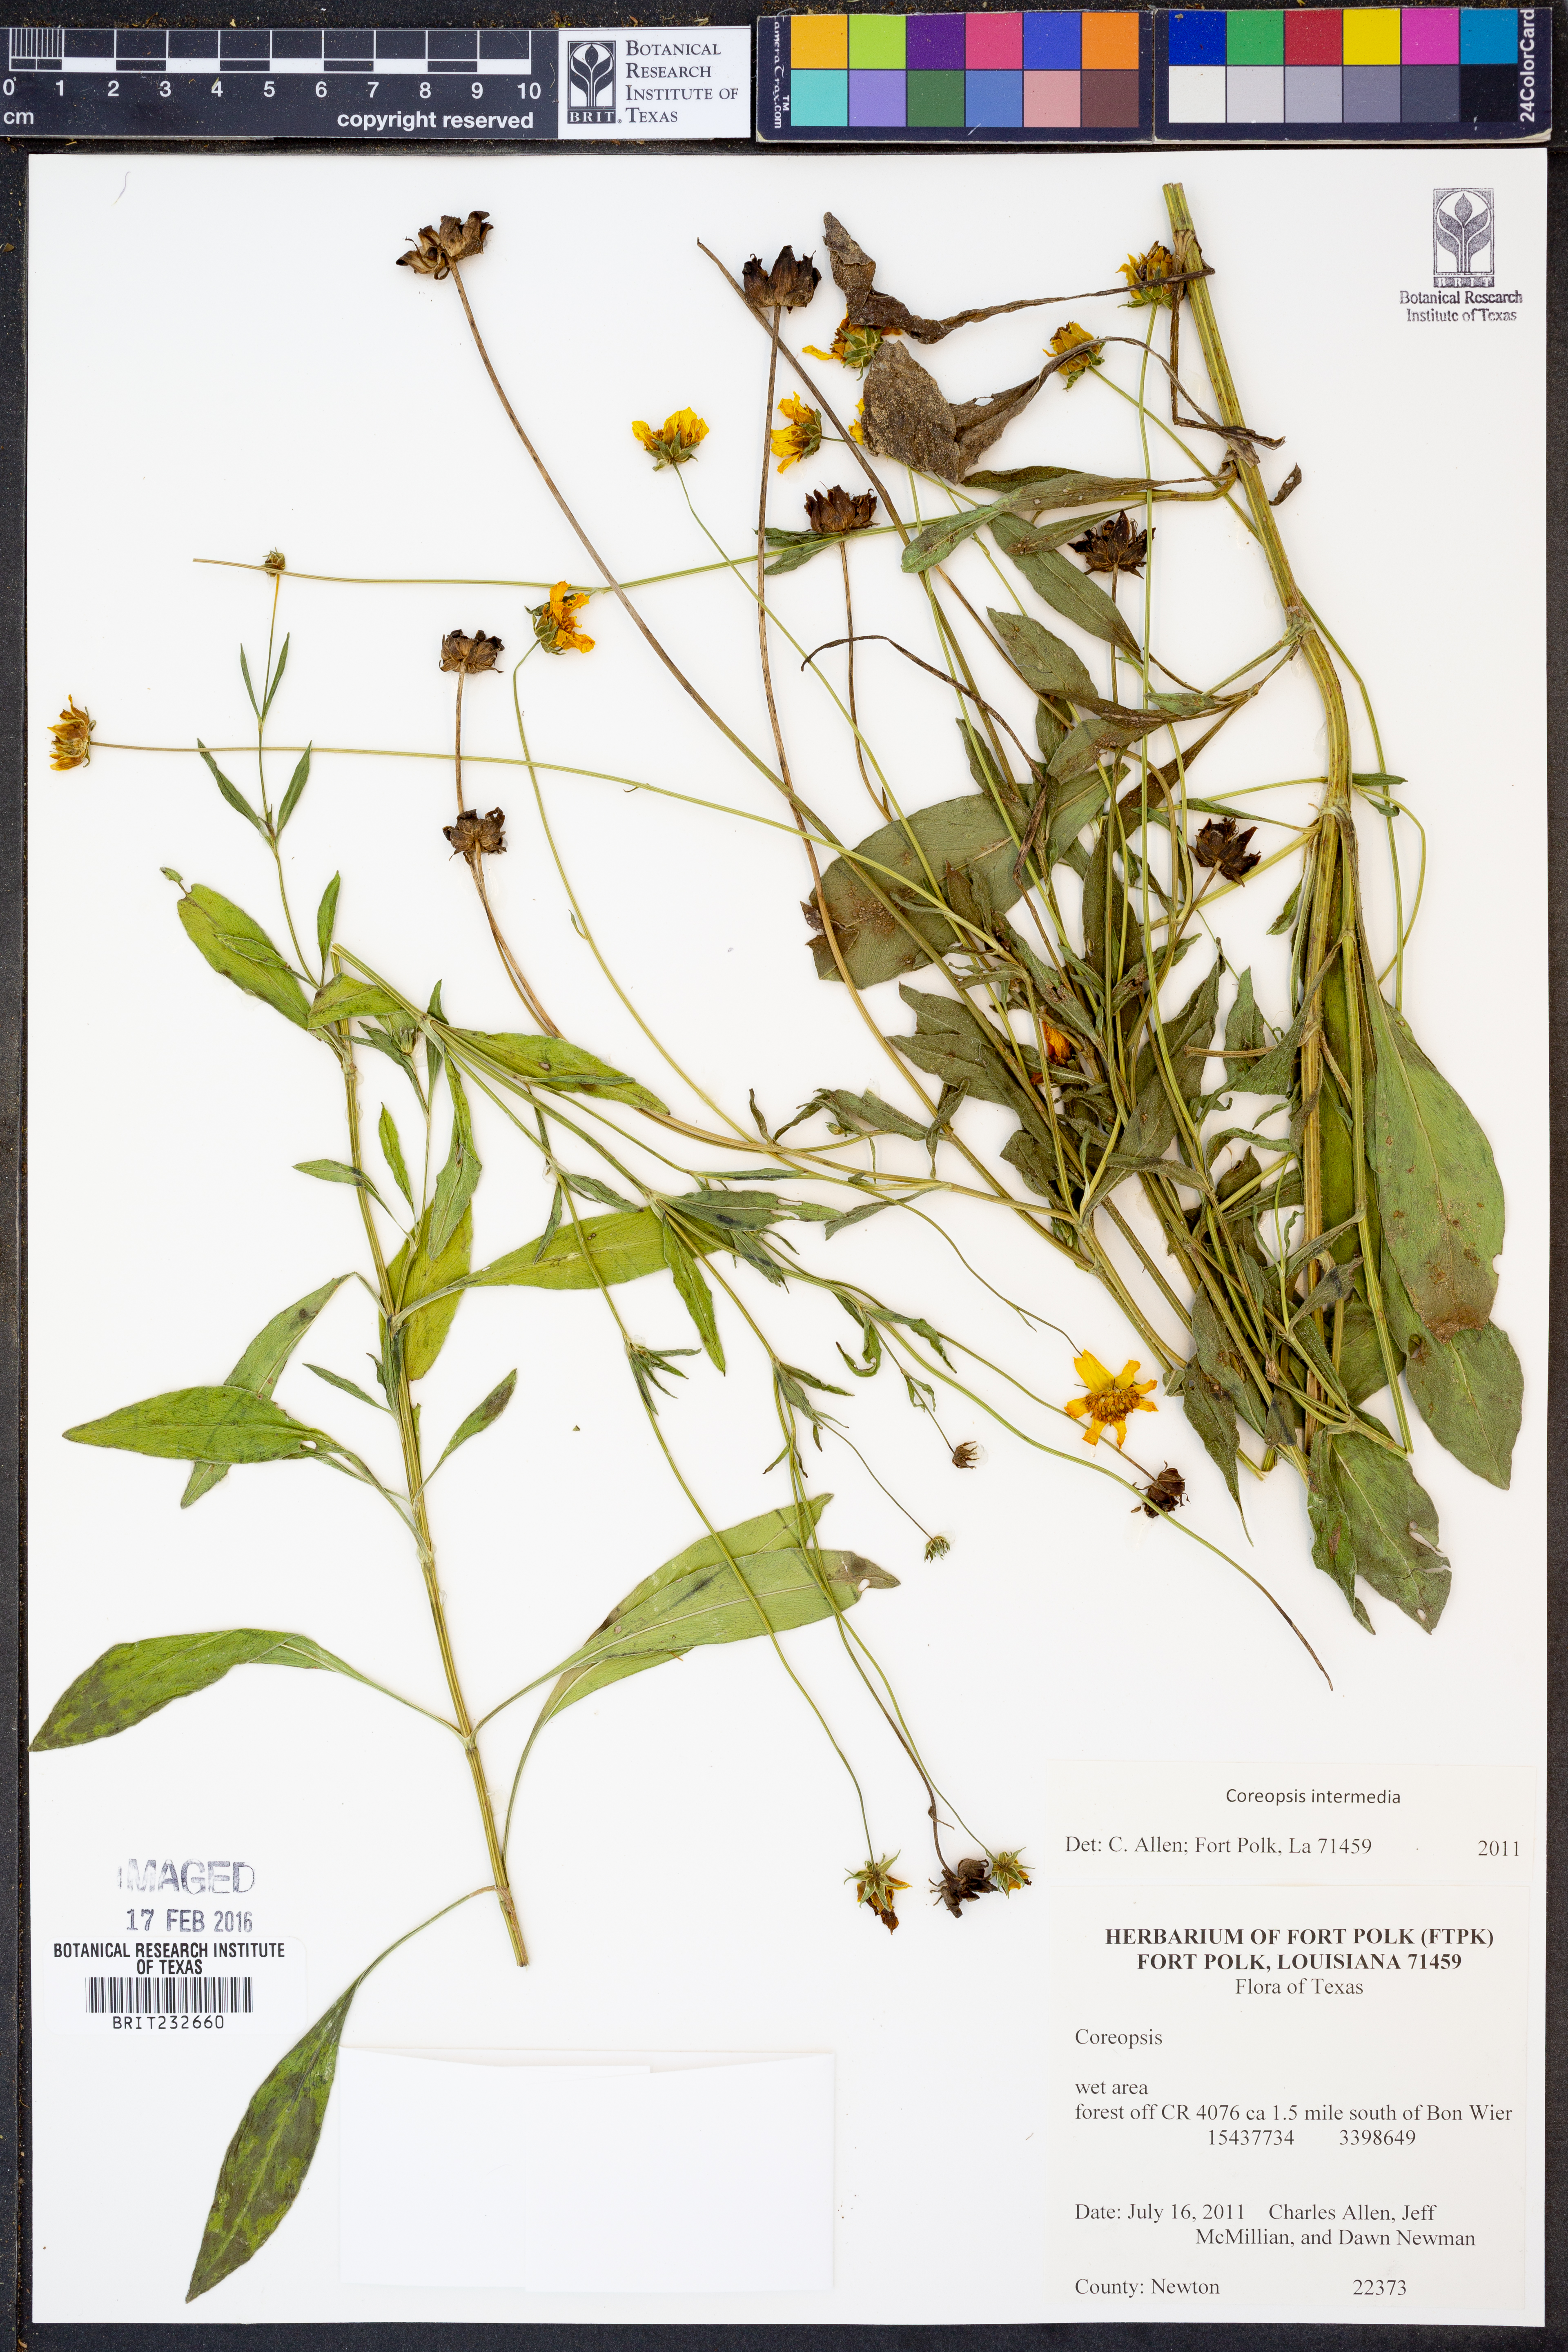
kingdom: Plantae
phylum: Tracheophyta
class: Magnoliopsida
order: Asterales
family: Asteraceae
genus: Coreopsis
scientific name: Coreopsis intermedia
